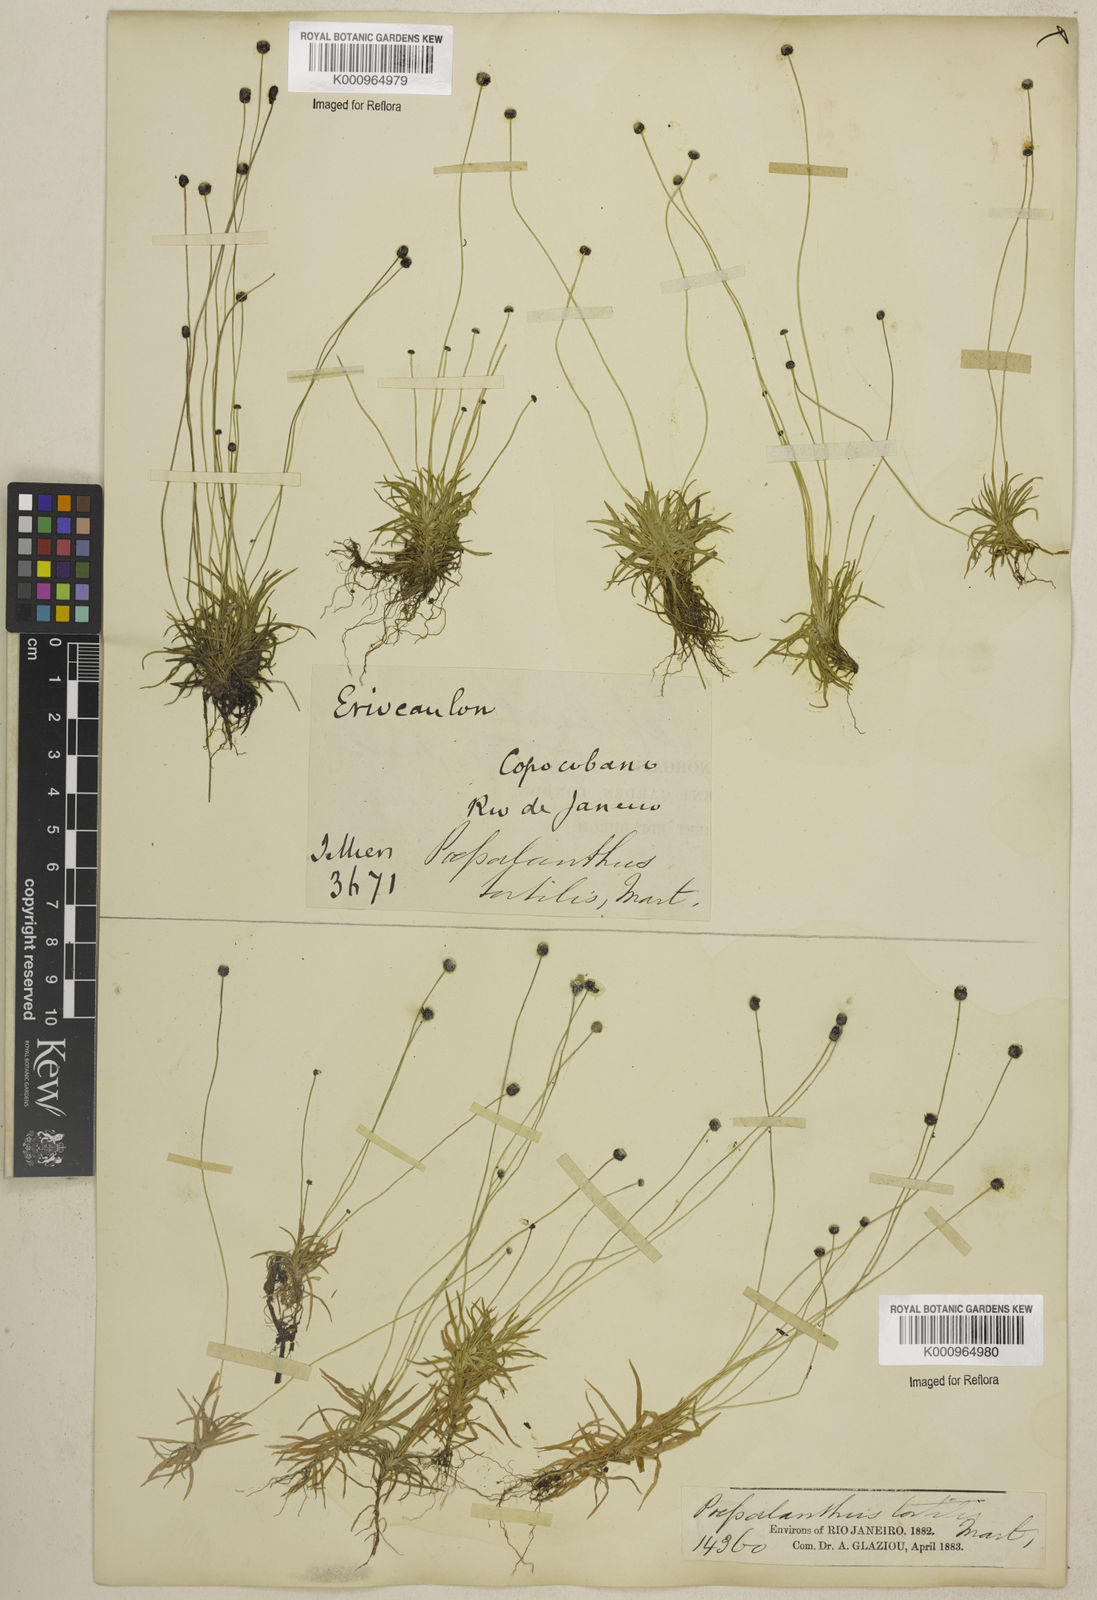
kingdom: Plantae
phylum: Tracheophyta
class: Liliopsida
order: Poales
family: Eriocaulaceae
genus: Paepalanthus
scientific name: Paepalanthus
